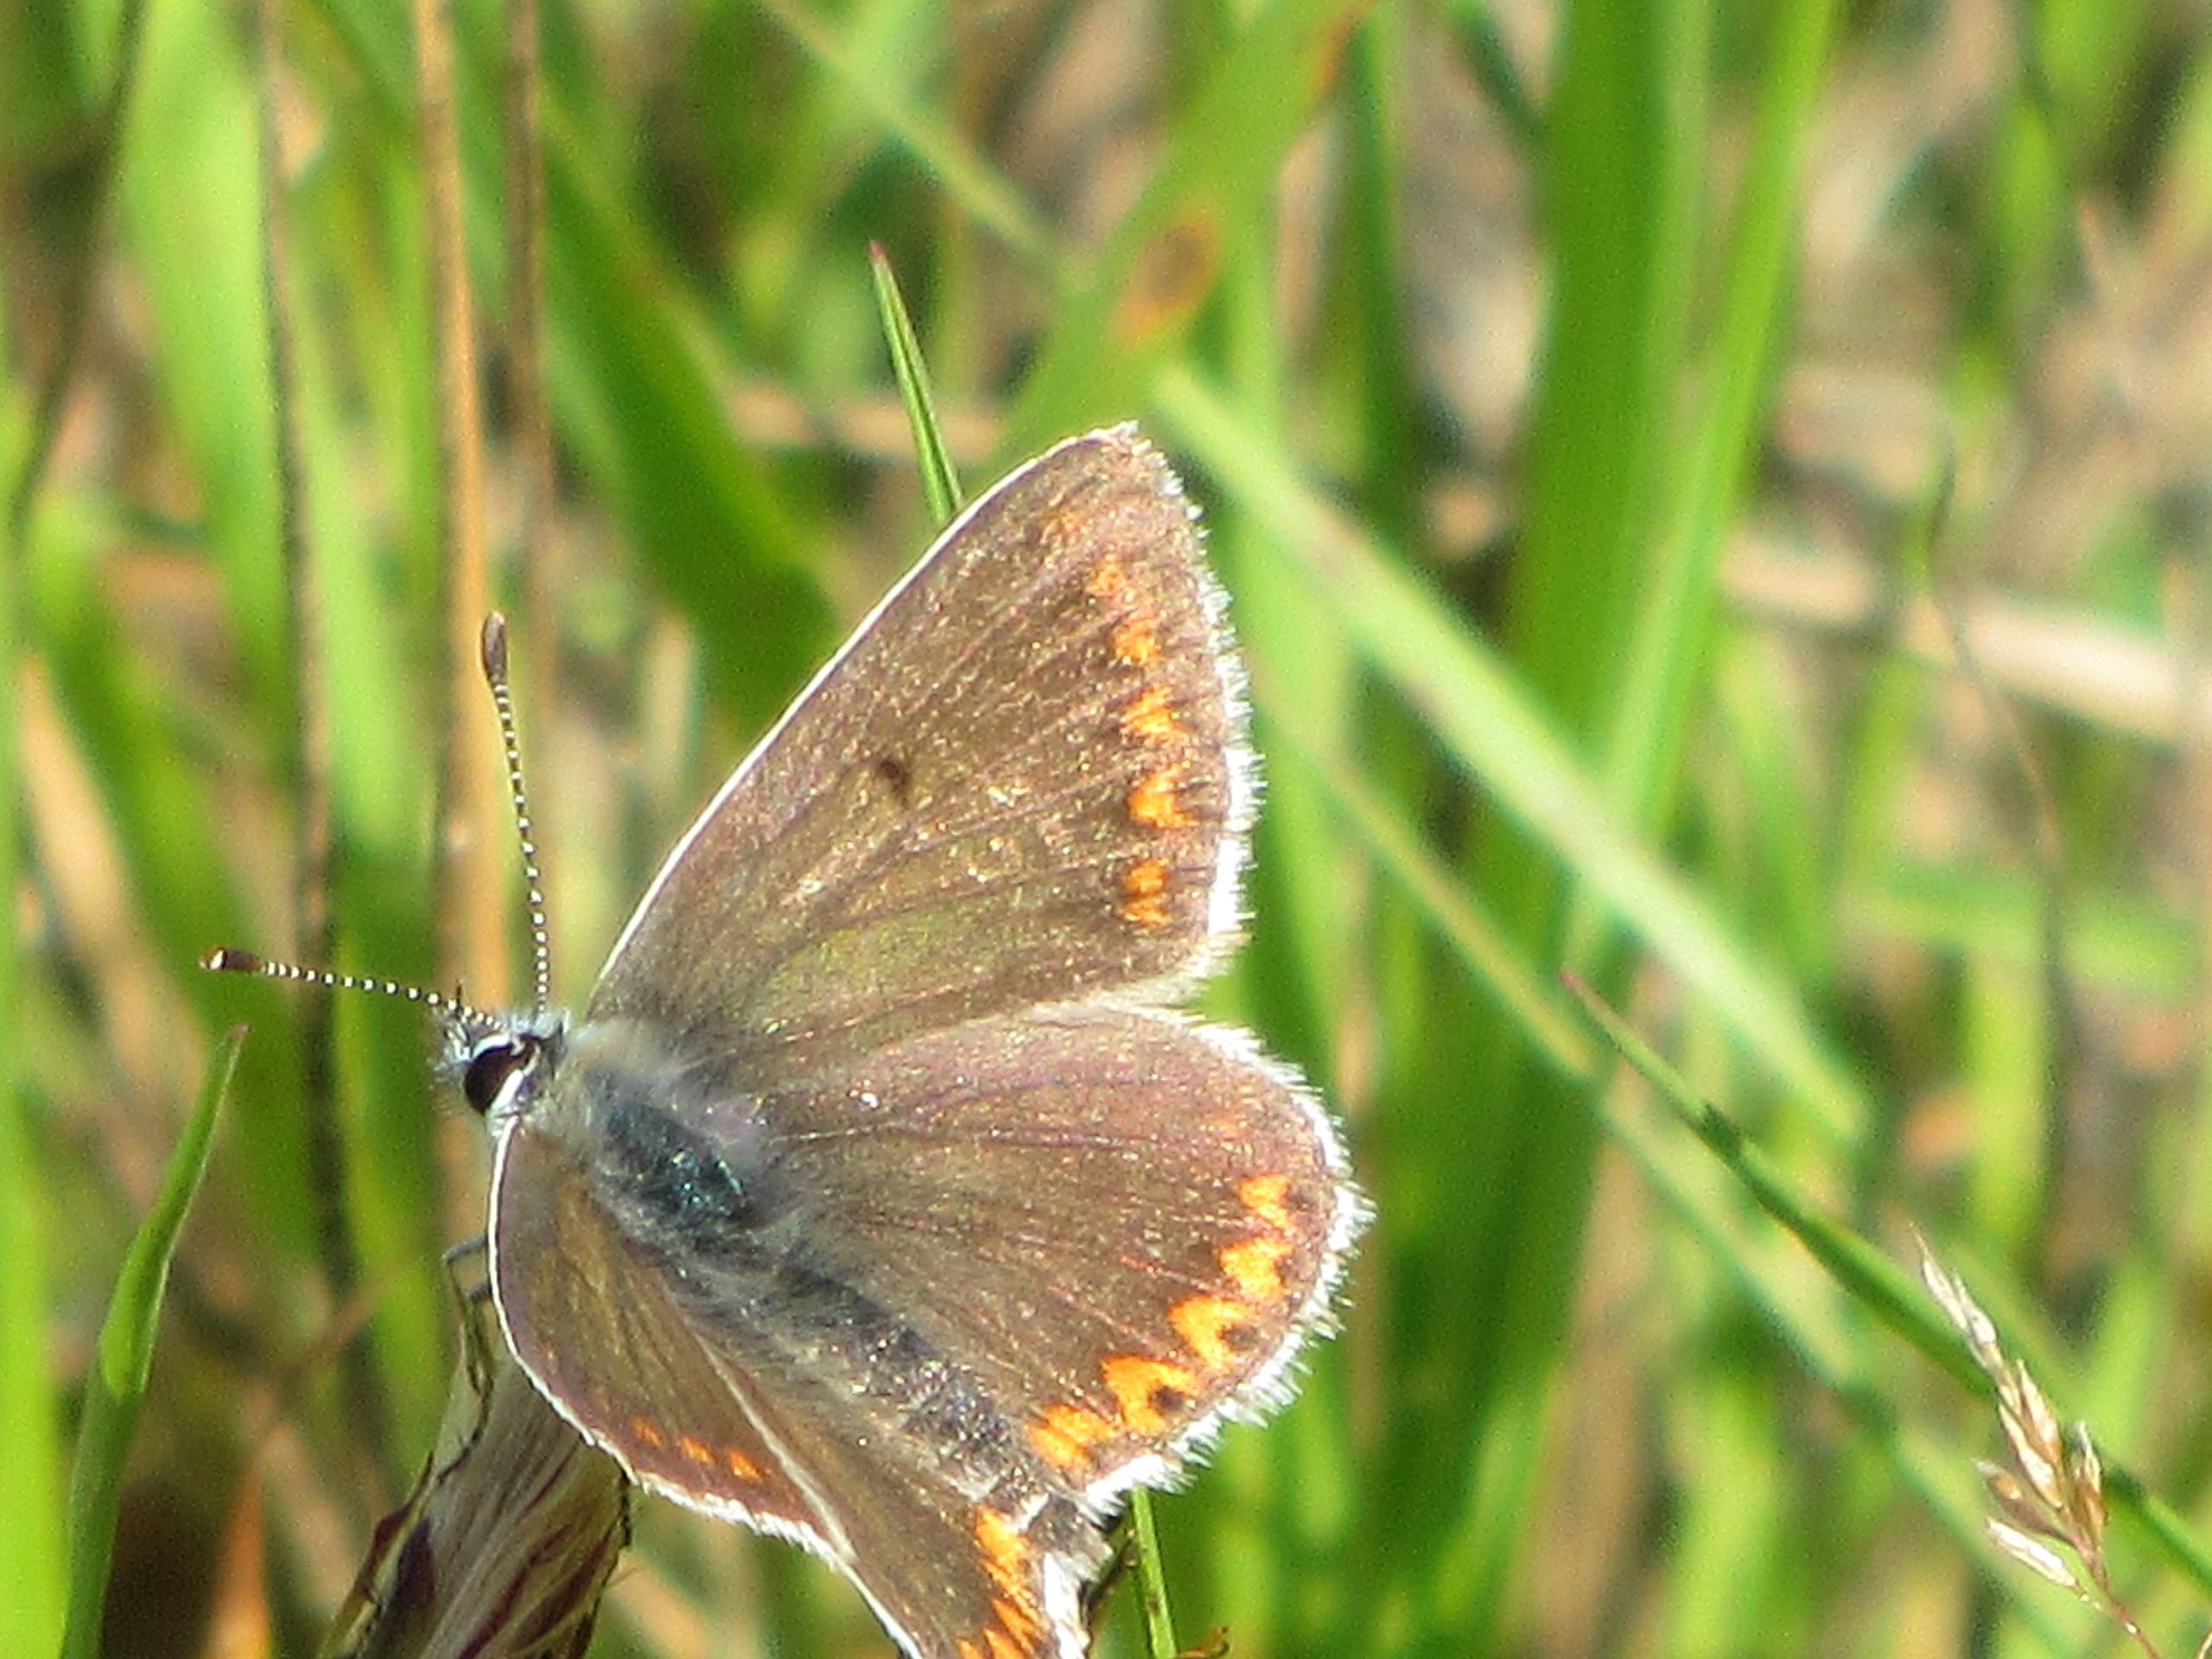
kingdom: Animalia
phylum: Arthropoda
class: Insecta
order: Lepidoptera
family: Lycaenidae
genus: Aricia
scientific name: Aricia agestis
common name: Rødplettet blåfugl
